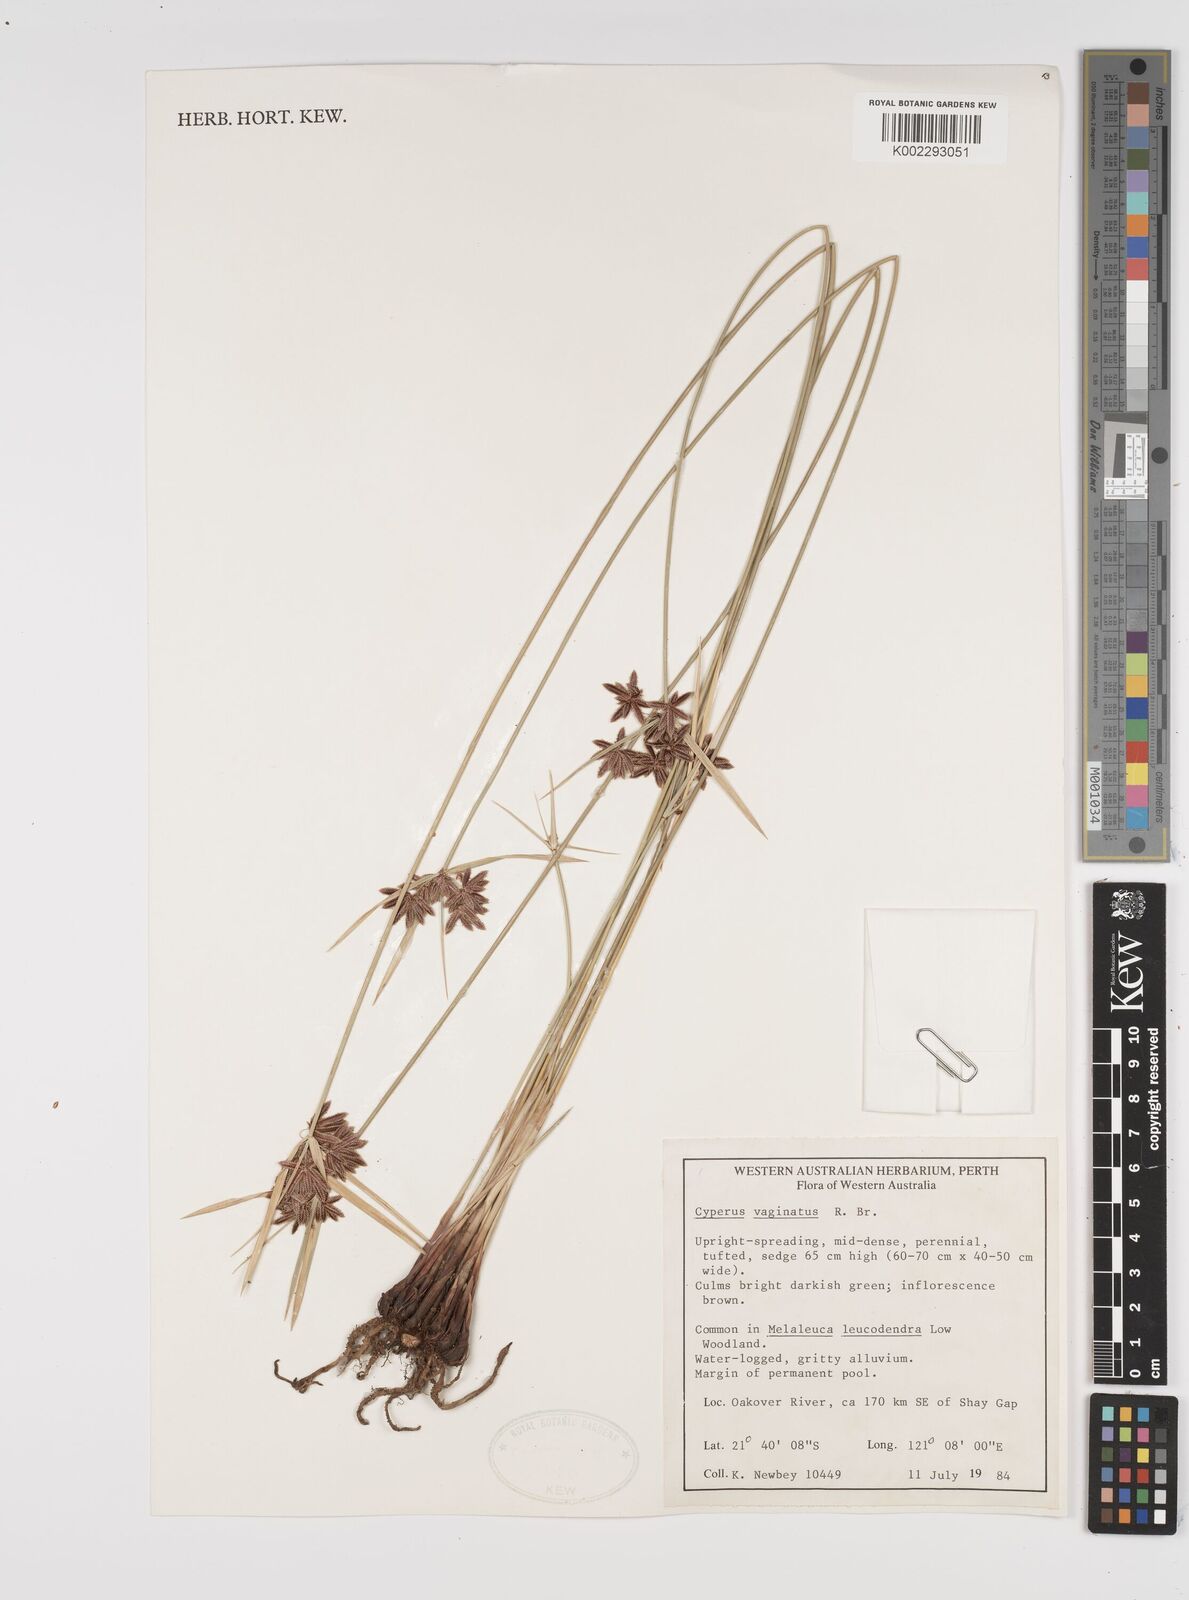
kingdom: Plantae
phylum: Tracheophyta
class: Liliopsida
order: Poales
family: Cyperaceae
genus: Cyperus
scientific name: Cyperus vaginatus
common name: Stiff-leaved flat-sedge
